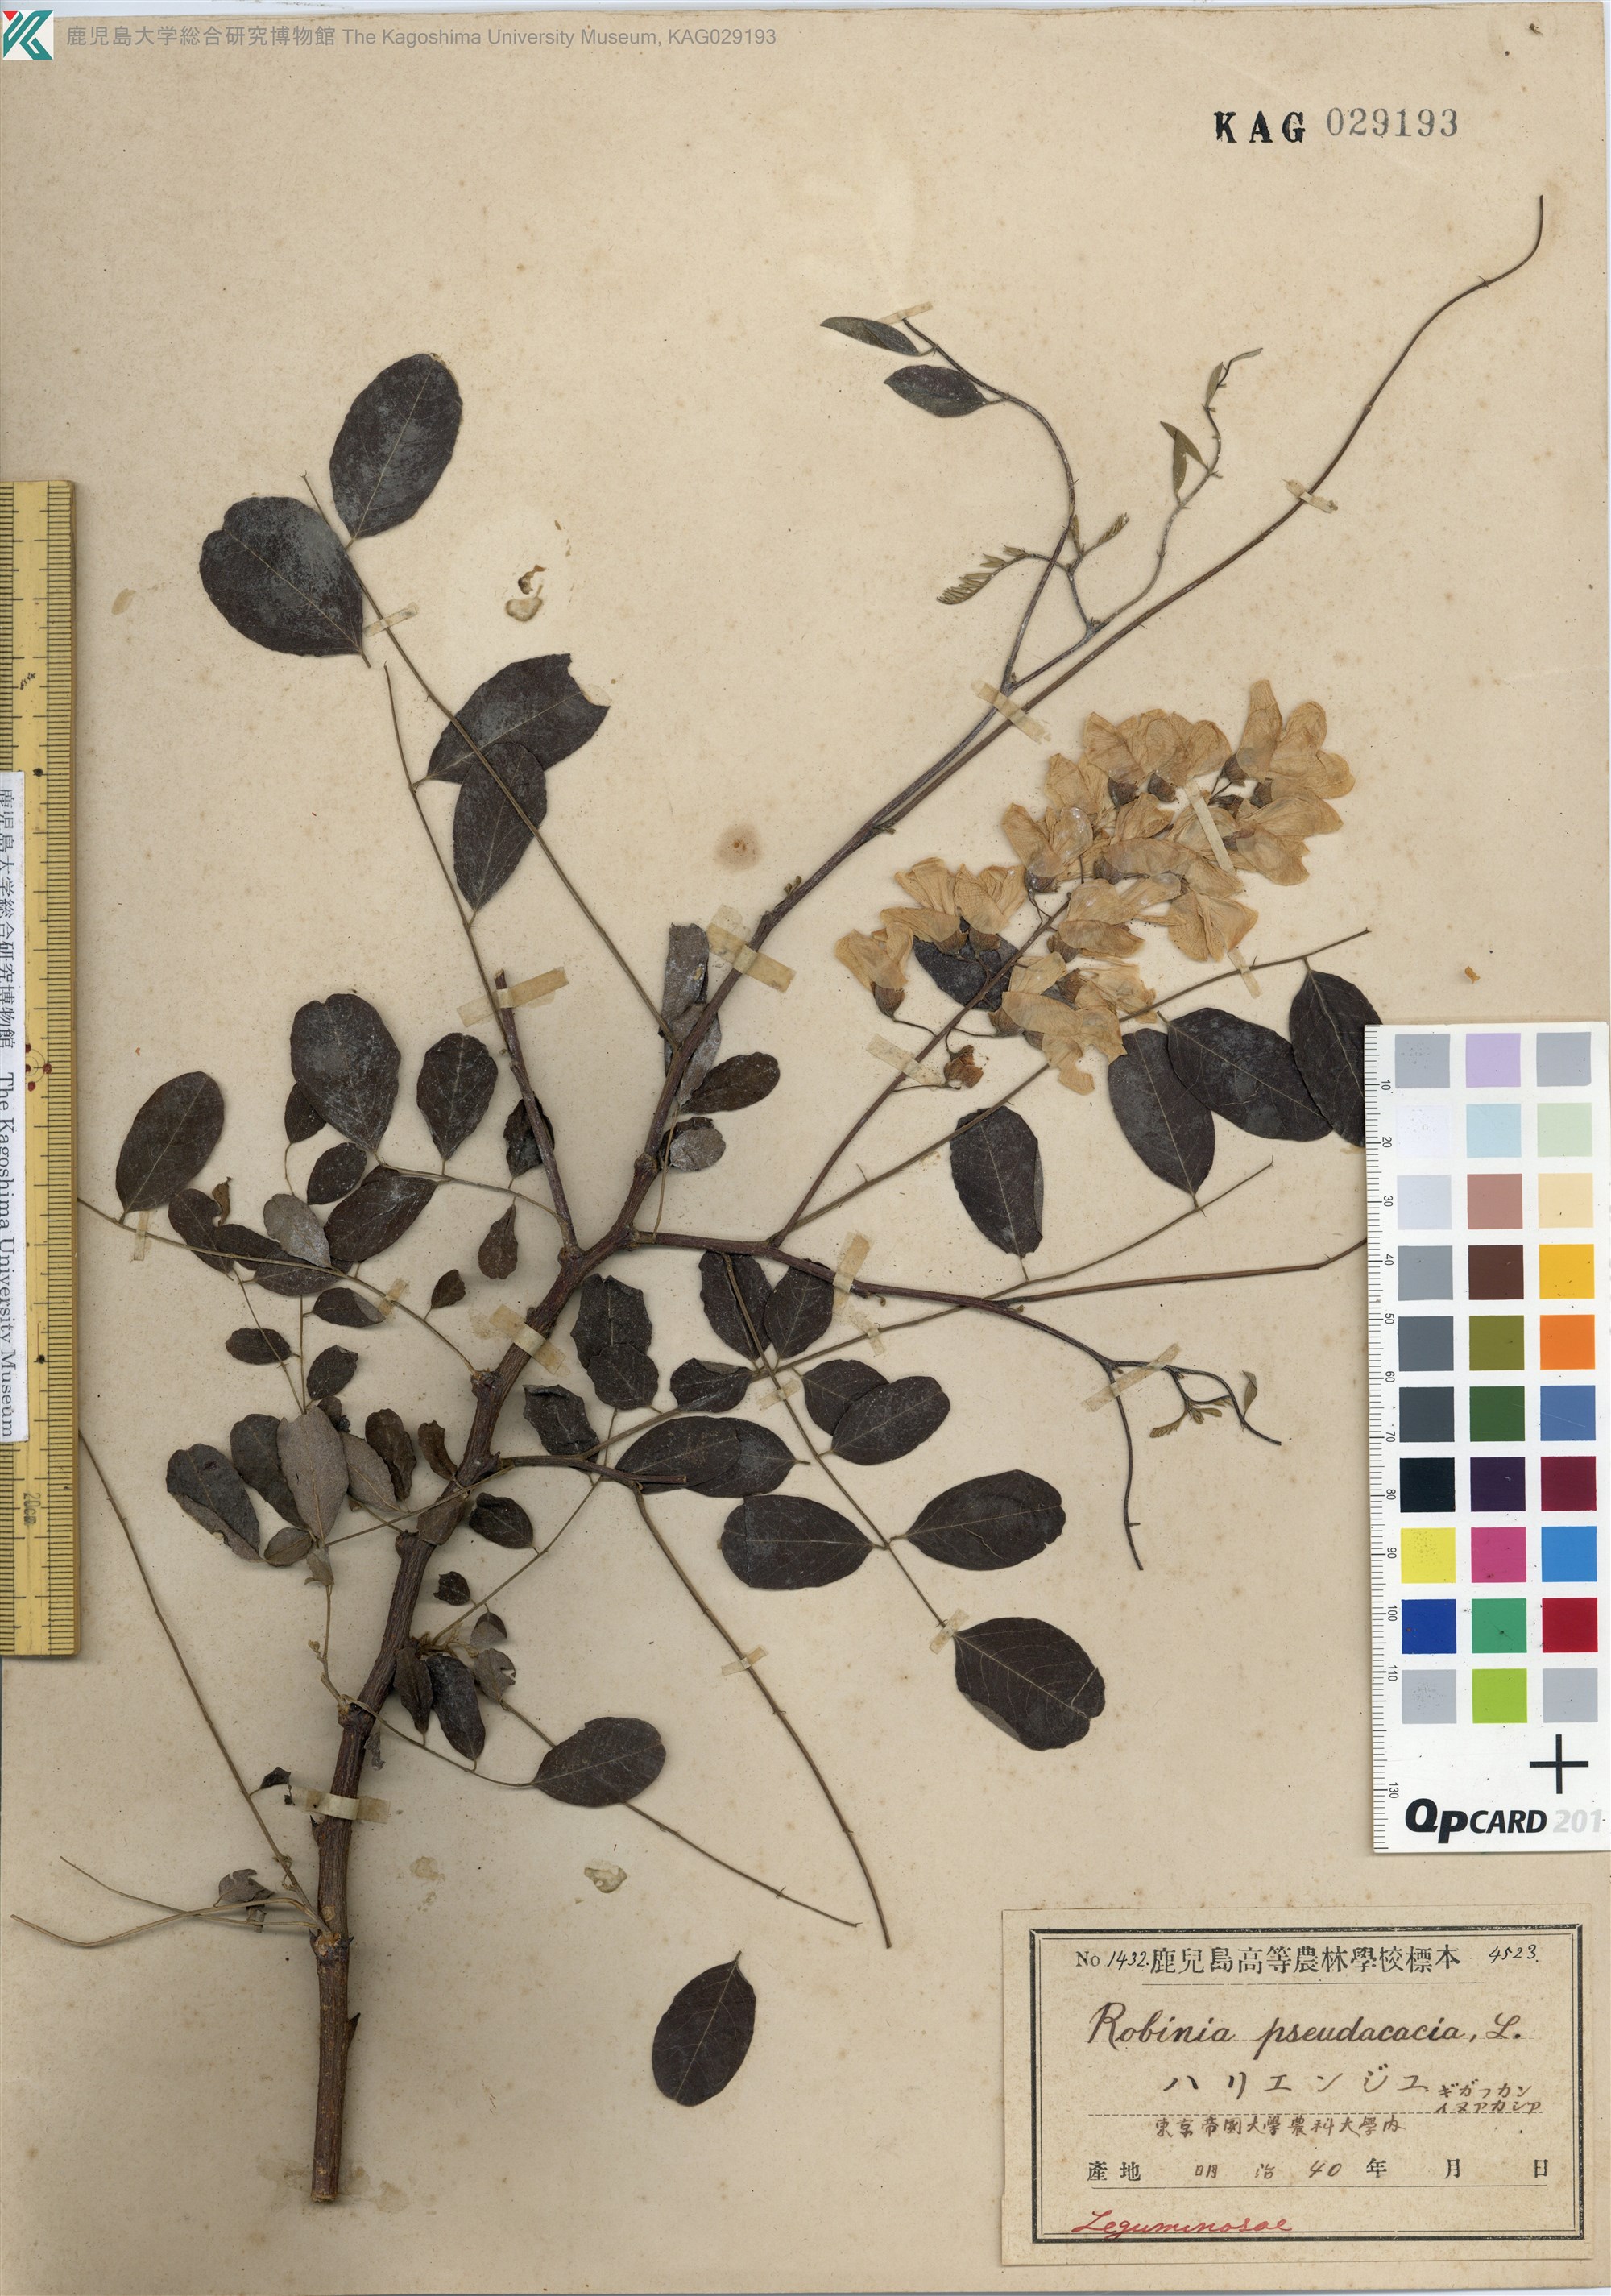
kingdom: Plantae
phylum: Tracheophyta
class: Magnoliopsida
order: Fabales
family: Fabaceae
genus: Robinia
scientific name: Robinia pseudoacacia
